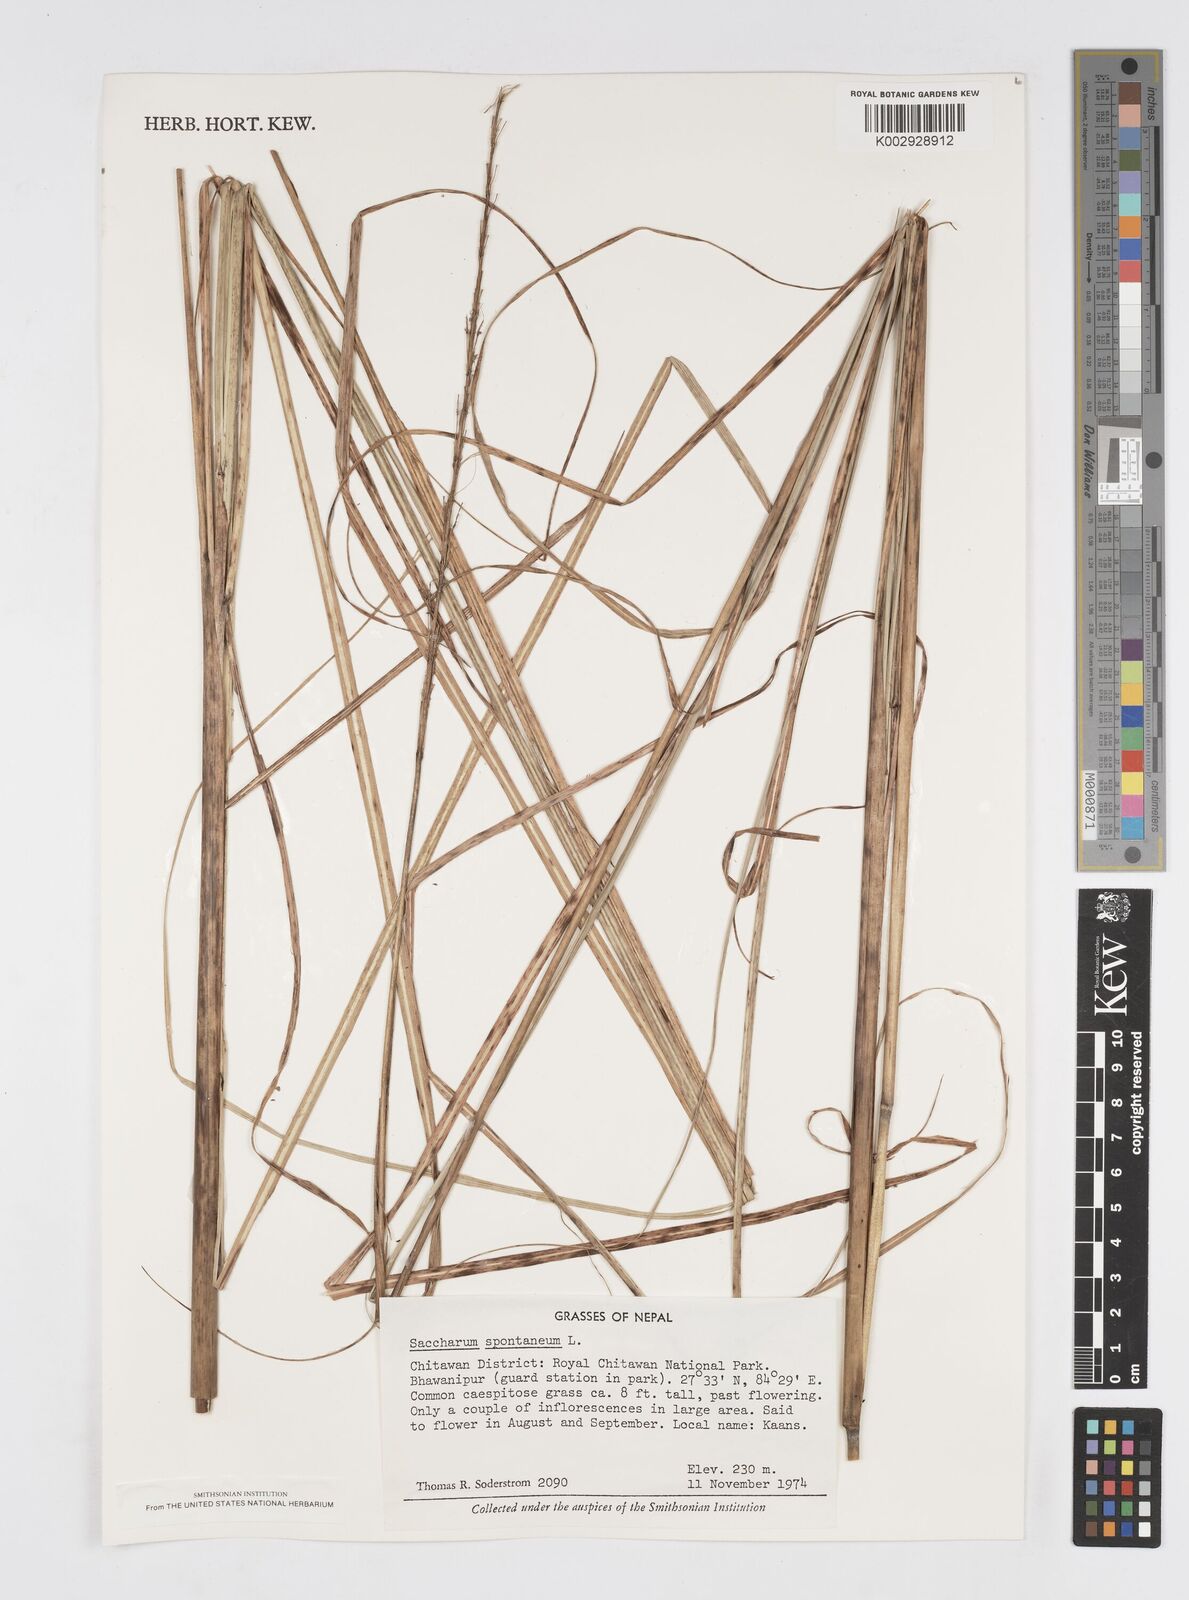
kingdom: Plantae
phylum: Tracheophyta
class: Liliopsida
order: Poales
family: Poaceae
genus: Saccharum
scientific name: Saccharum spontaneum
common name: Wild sugarcane
